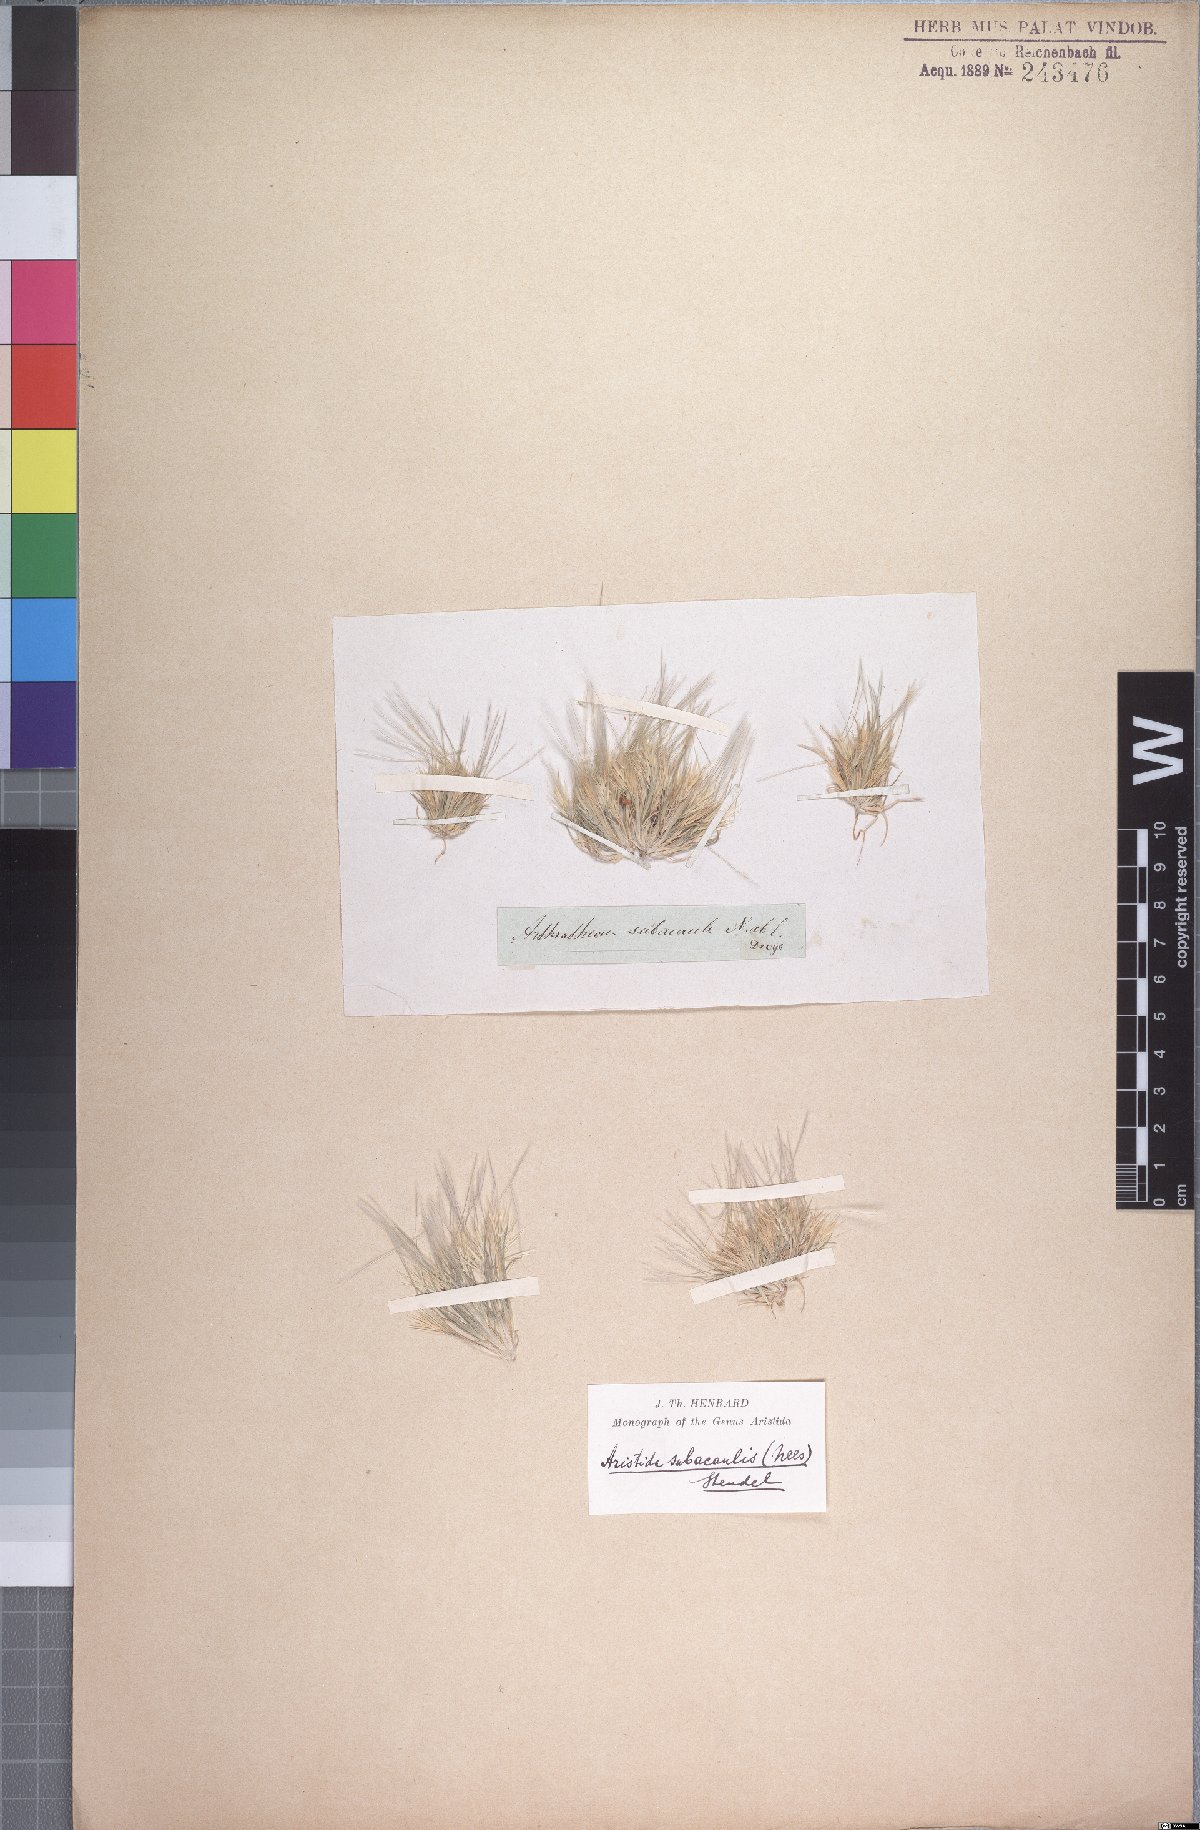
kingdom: Plantae
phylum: Tracheophyta
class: Liliopsida
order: Poales
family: Poaceae
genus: Stipagrostis
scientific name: Stipagrostis subacaulis
